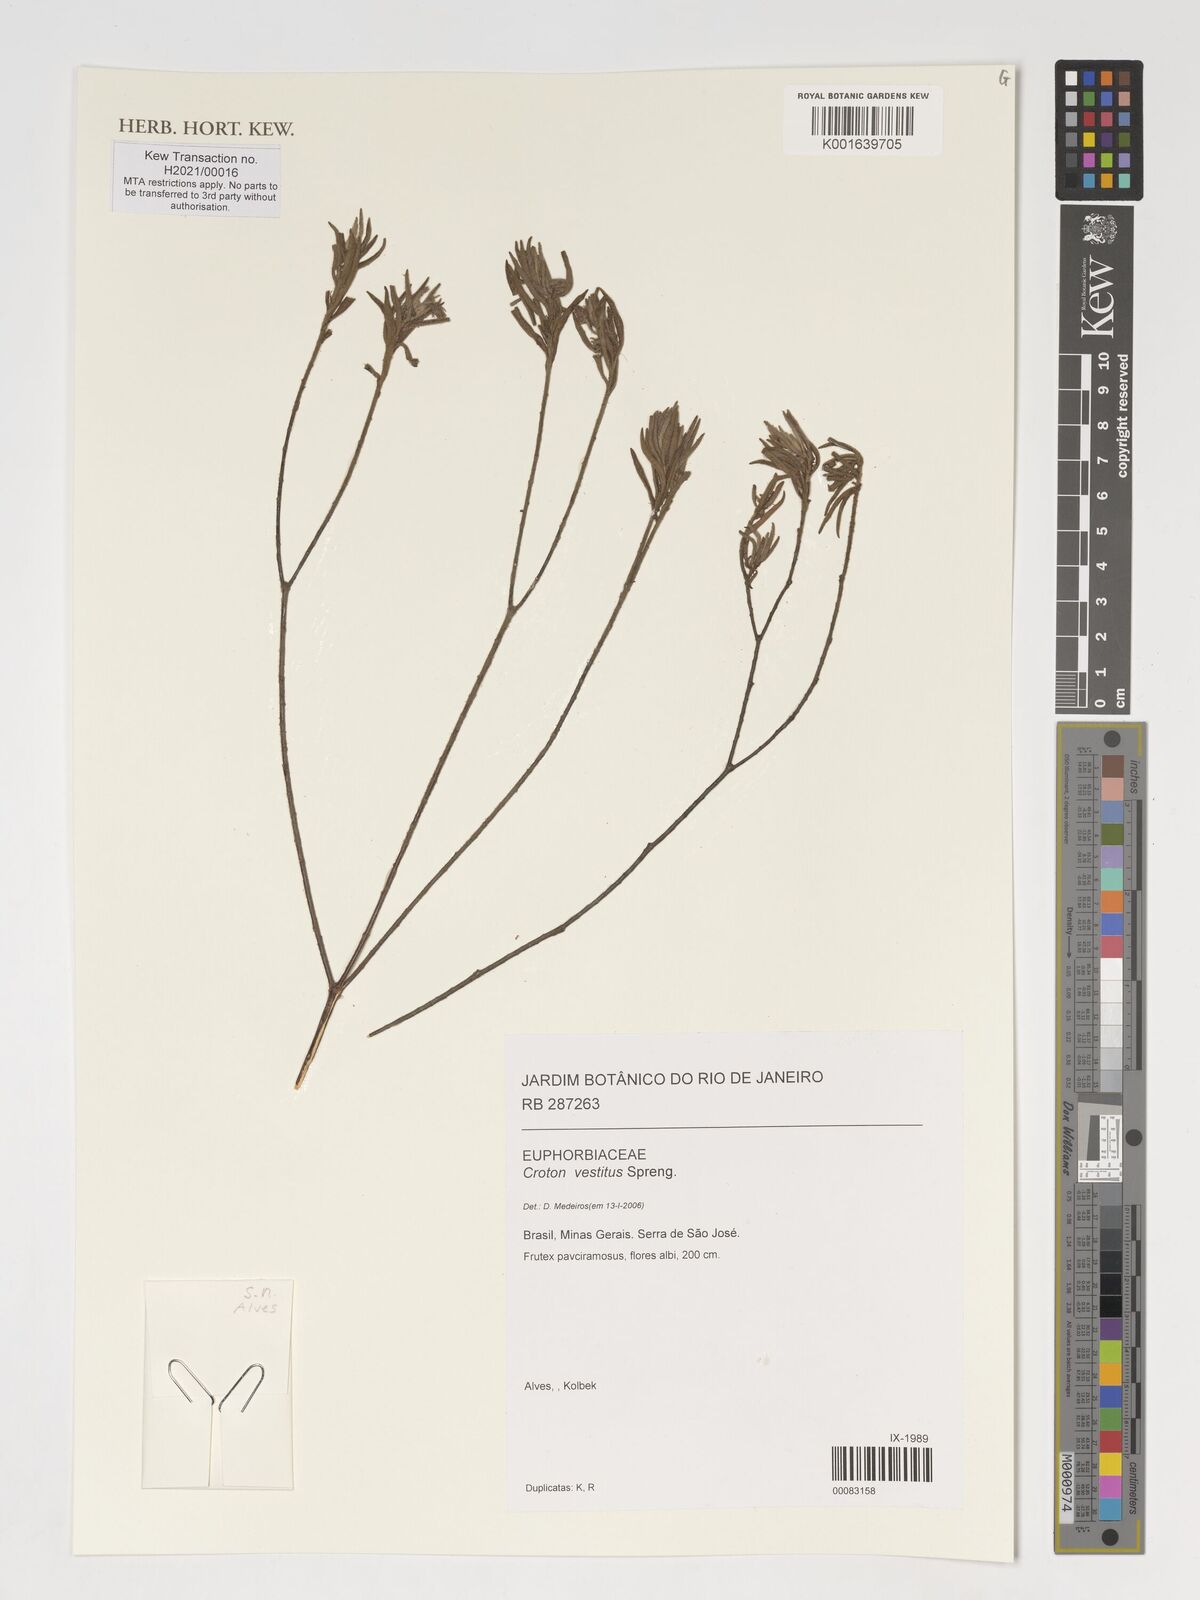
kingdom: Plantae
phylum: Tracheophyta
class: Magnoliopsida
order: Malpighiales
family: Euphorbiaceae
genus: Croton
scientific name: Croton vestitus
